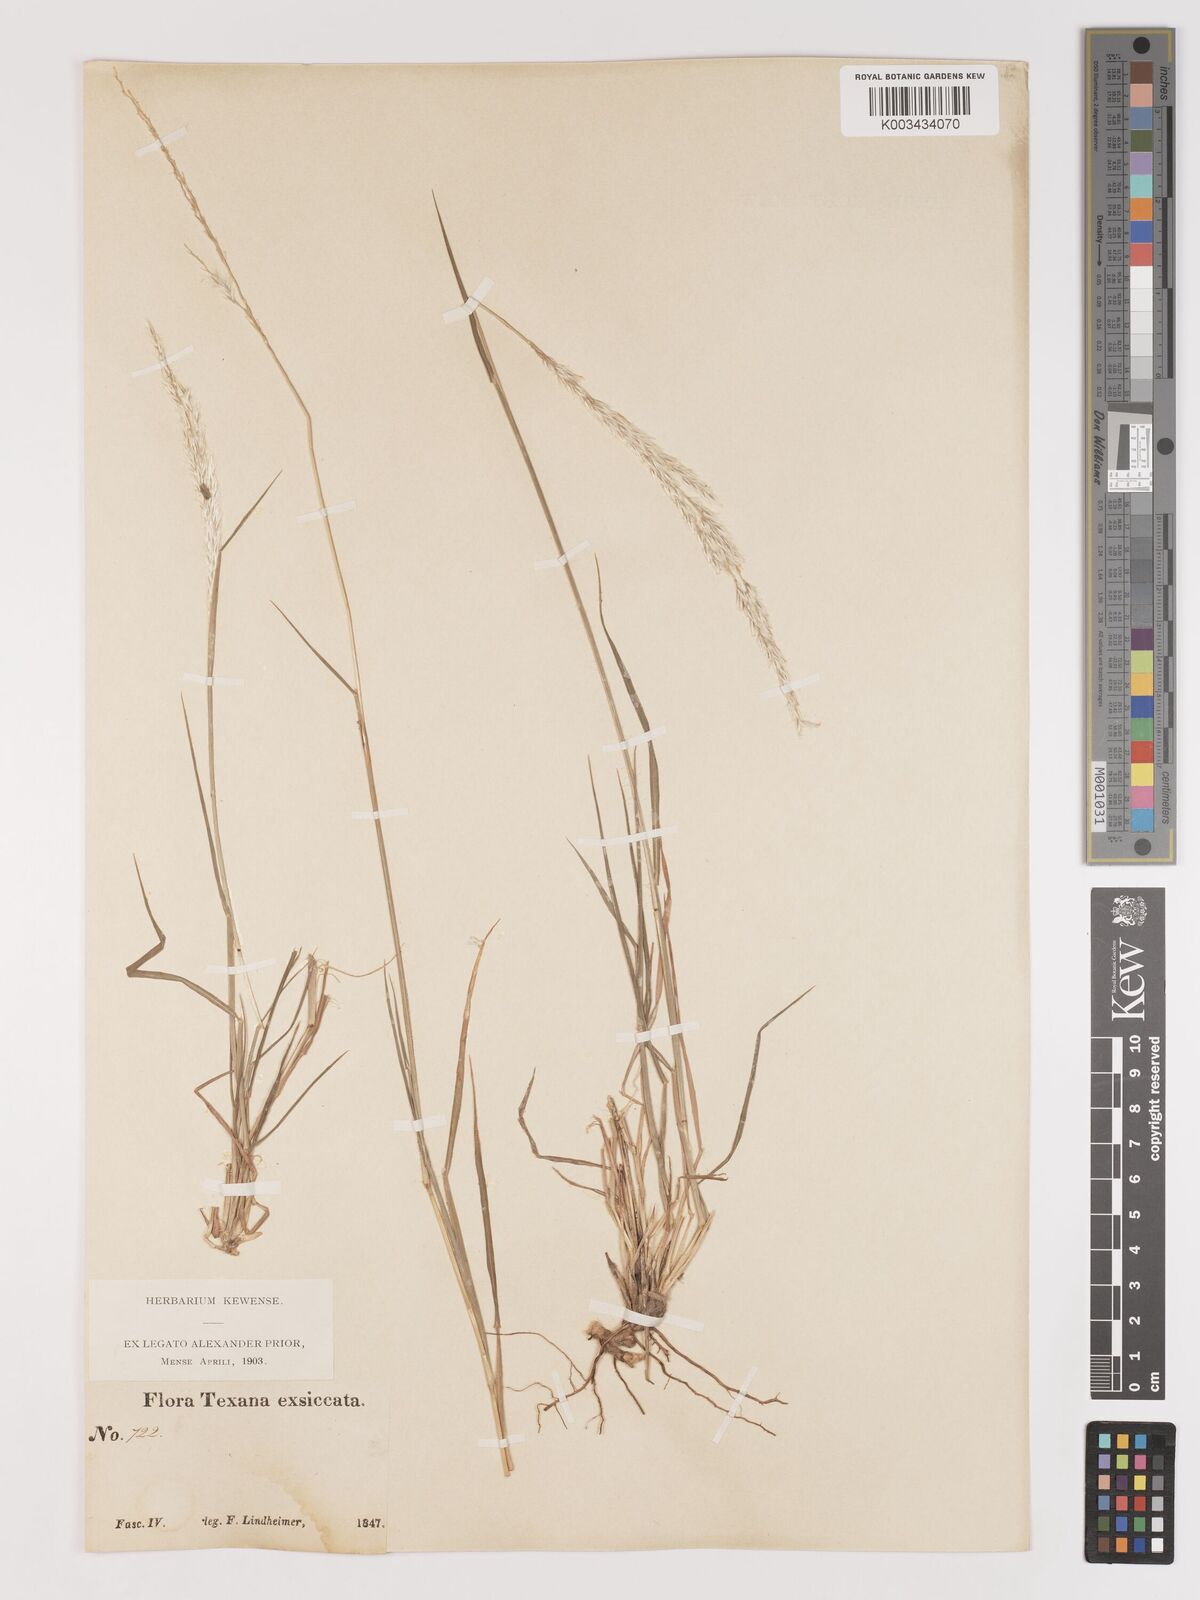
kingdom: Plantae
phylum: Tracheophyta
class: Liliopsida
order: Poales
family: Poaceae
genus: Digitaria
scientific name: Digitaria californica
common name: Arizona cottontop
